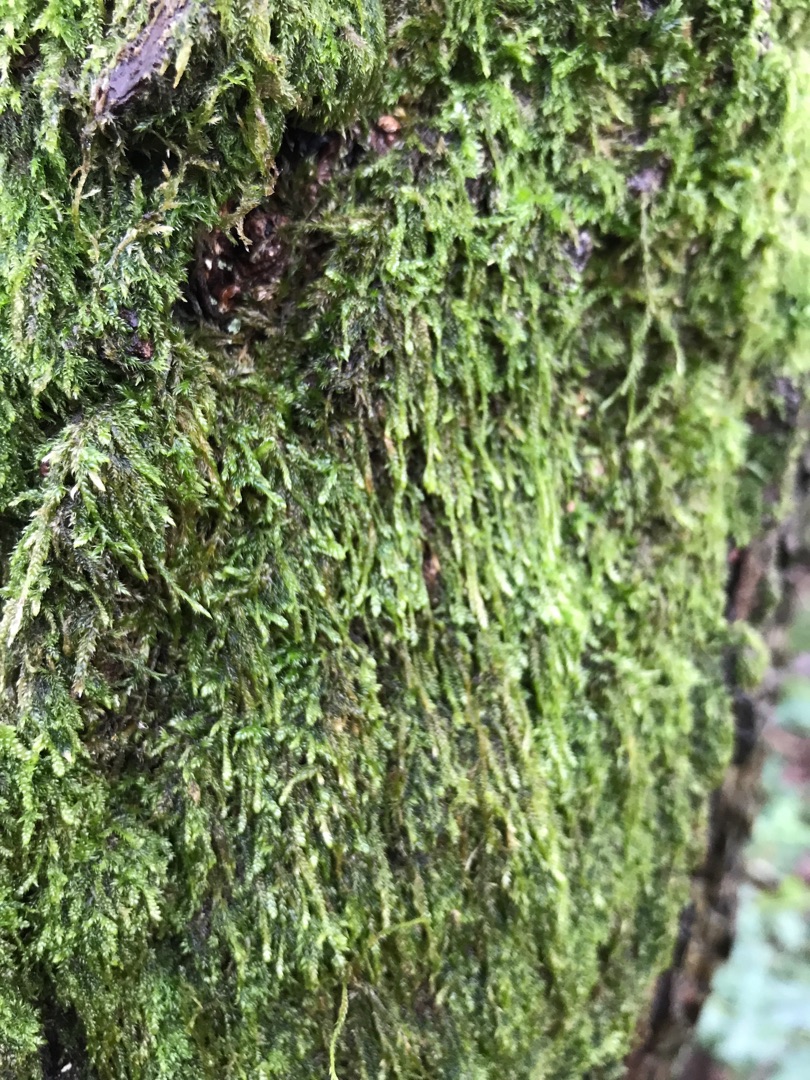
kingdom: Plantae
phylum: Bryophyta
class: Bryopsida
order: Hypnales
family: Hypnaceae
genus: Hypnum
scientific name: Hypnum
